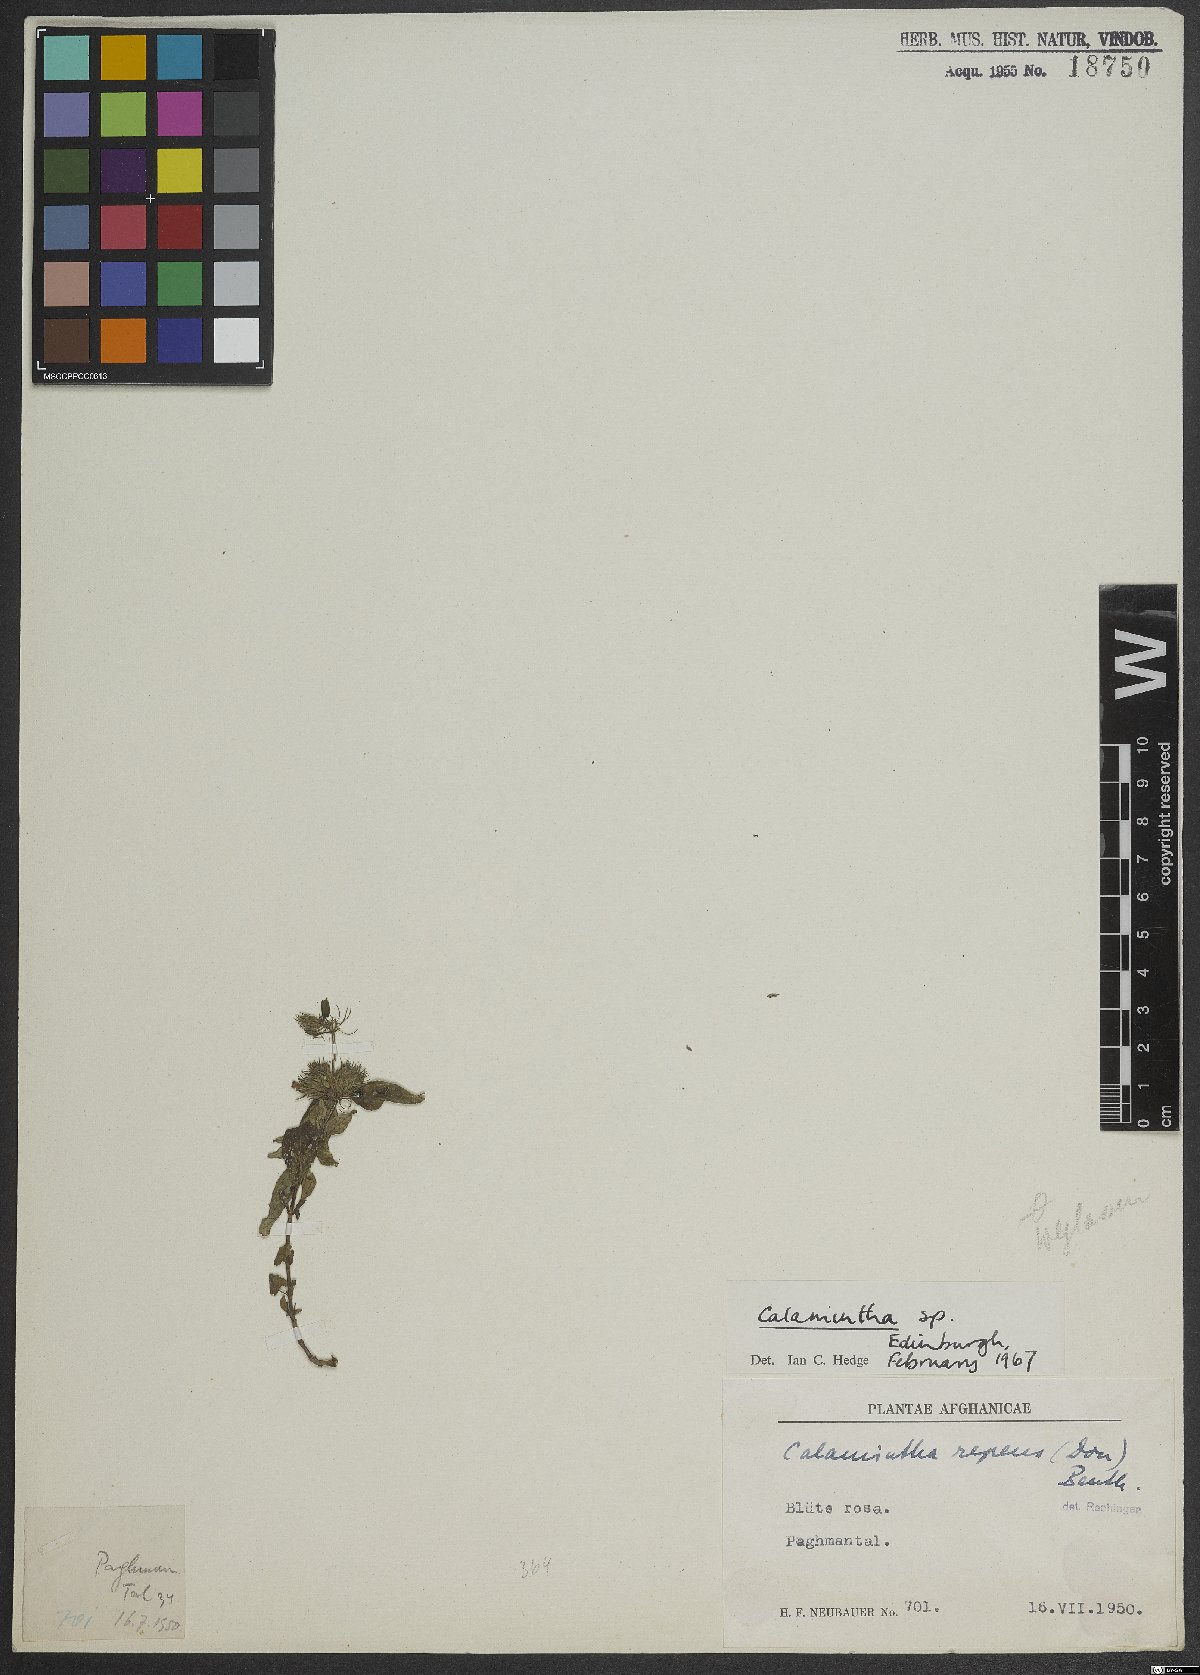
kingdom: Plantae
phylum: Tracheophyta
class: Magnoliopsida
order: Lamiales
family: Lamiaceae
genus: Calamintha
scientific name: Calamintha
